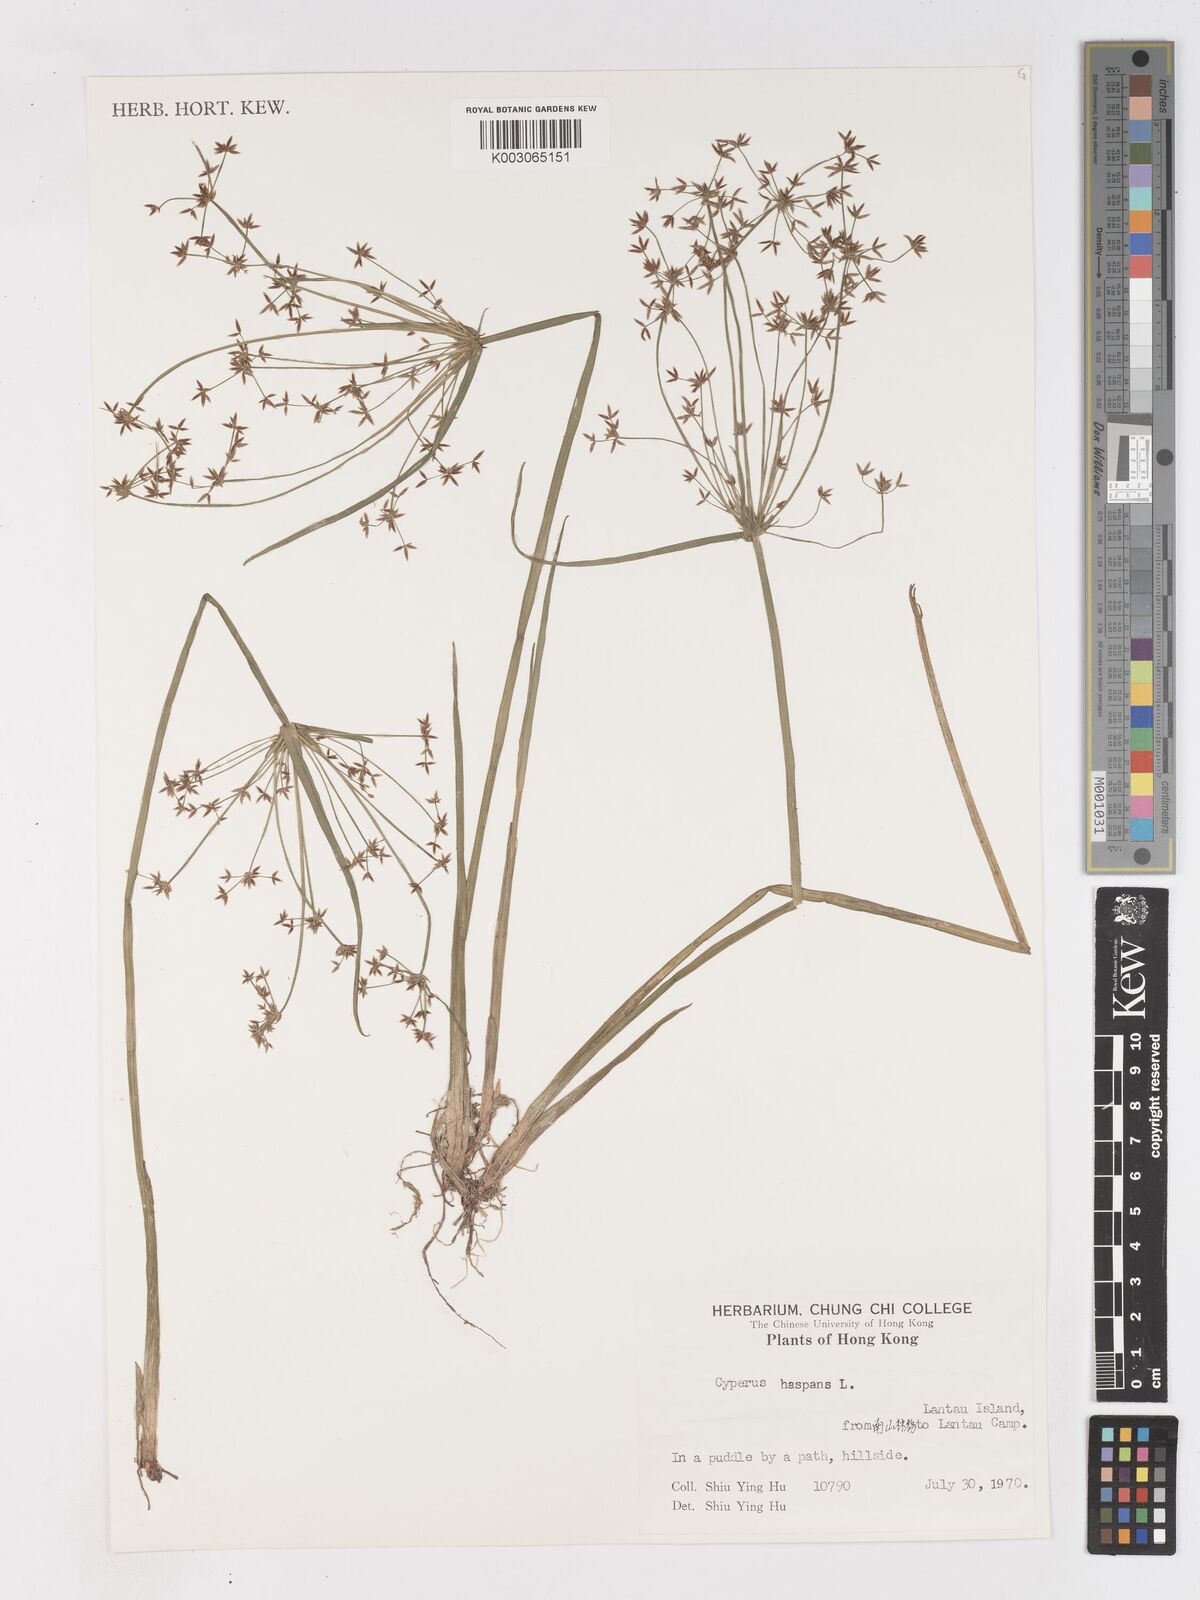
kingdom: Plantae
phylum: Tracheophyta
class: Liliopsida
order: Poales
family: Cyperaceae
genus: Cyperus
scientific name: Cyperus haspan
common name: Haspan flatsedge
